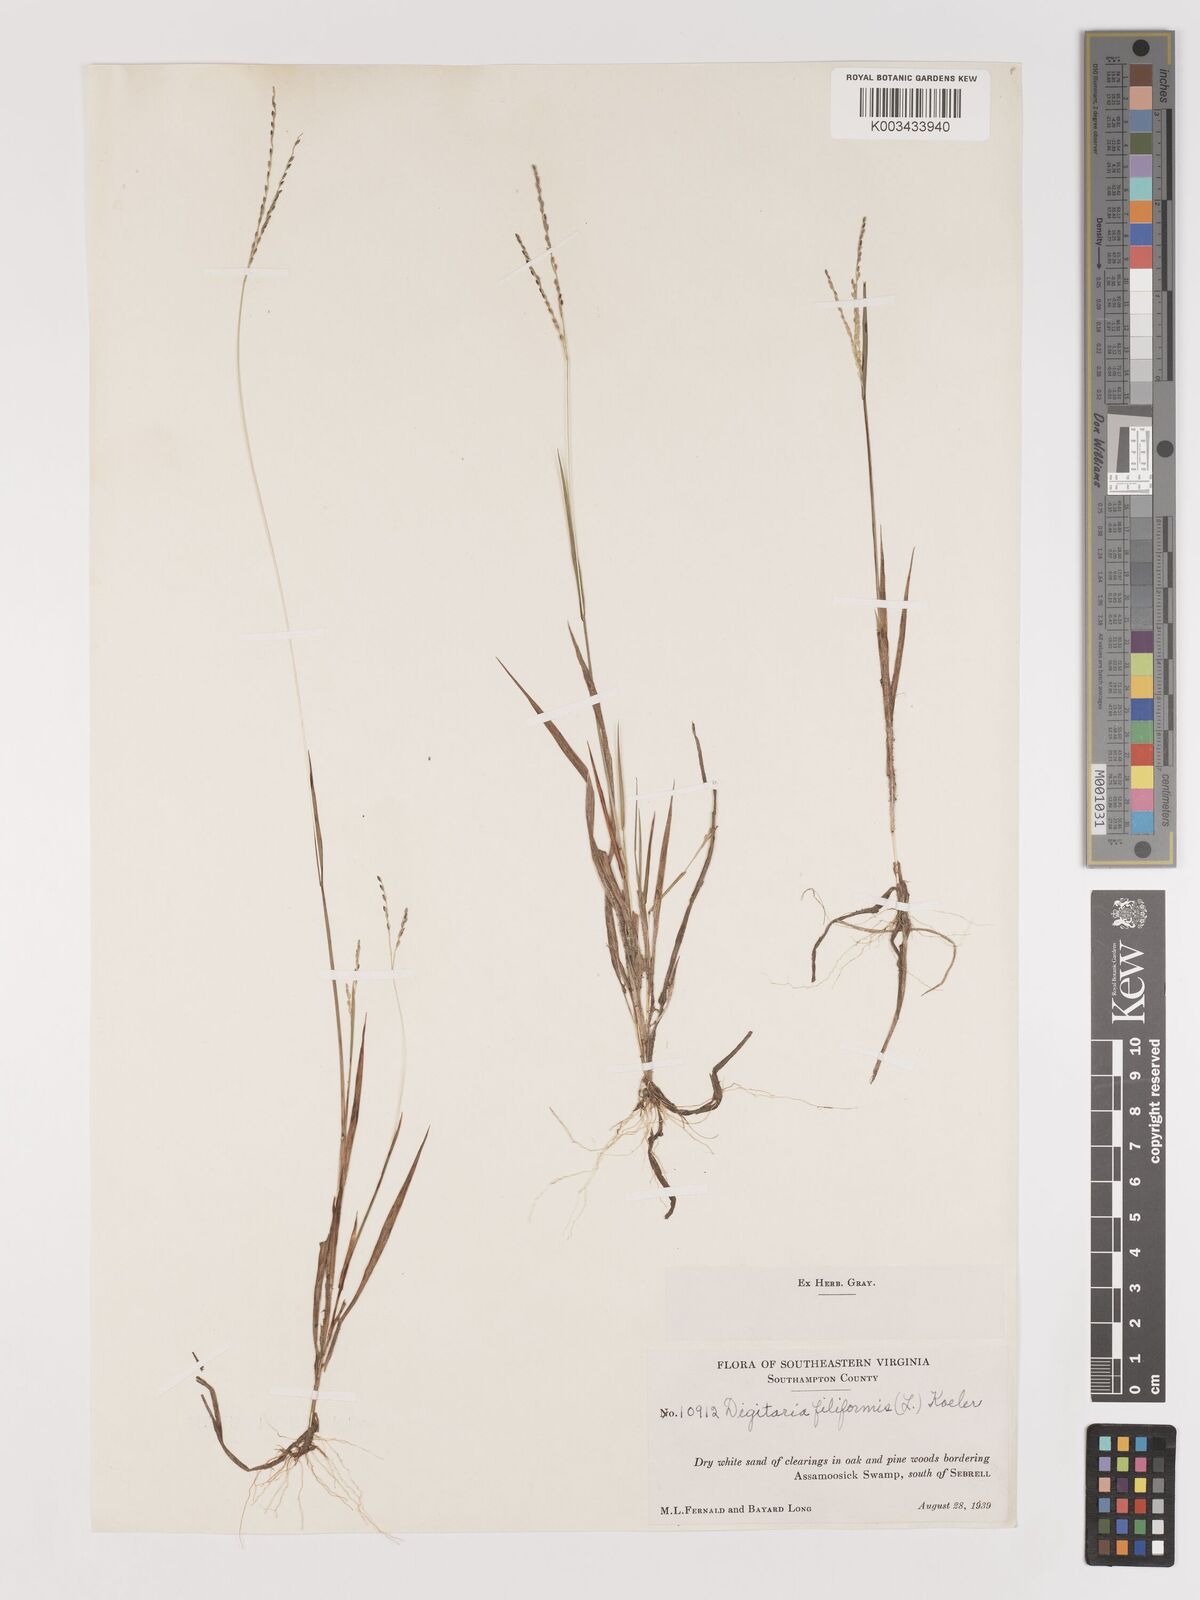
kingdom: Plantae
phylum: Tracheophyta
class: Liliopsida
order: Poales
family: Poaceae
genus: Digitaria
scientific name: Digitaria filiformis
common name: Slender crabgrass
